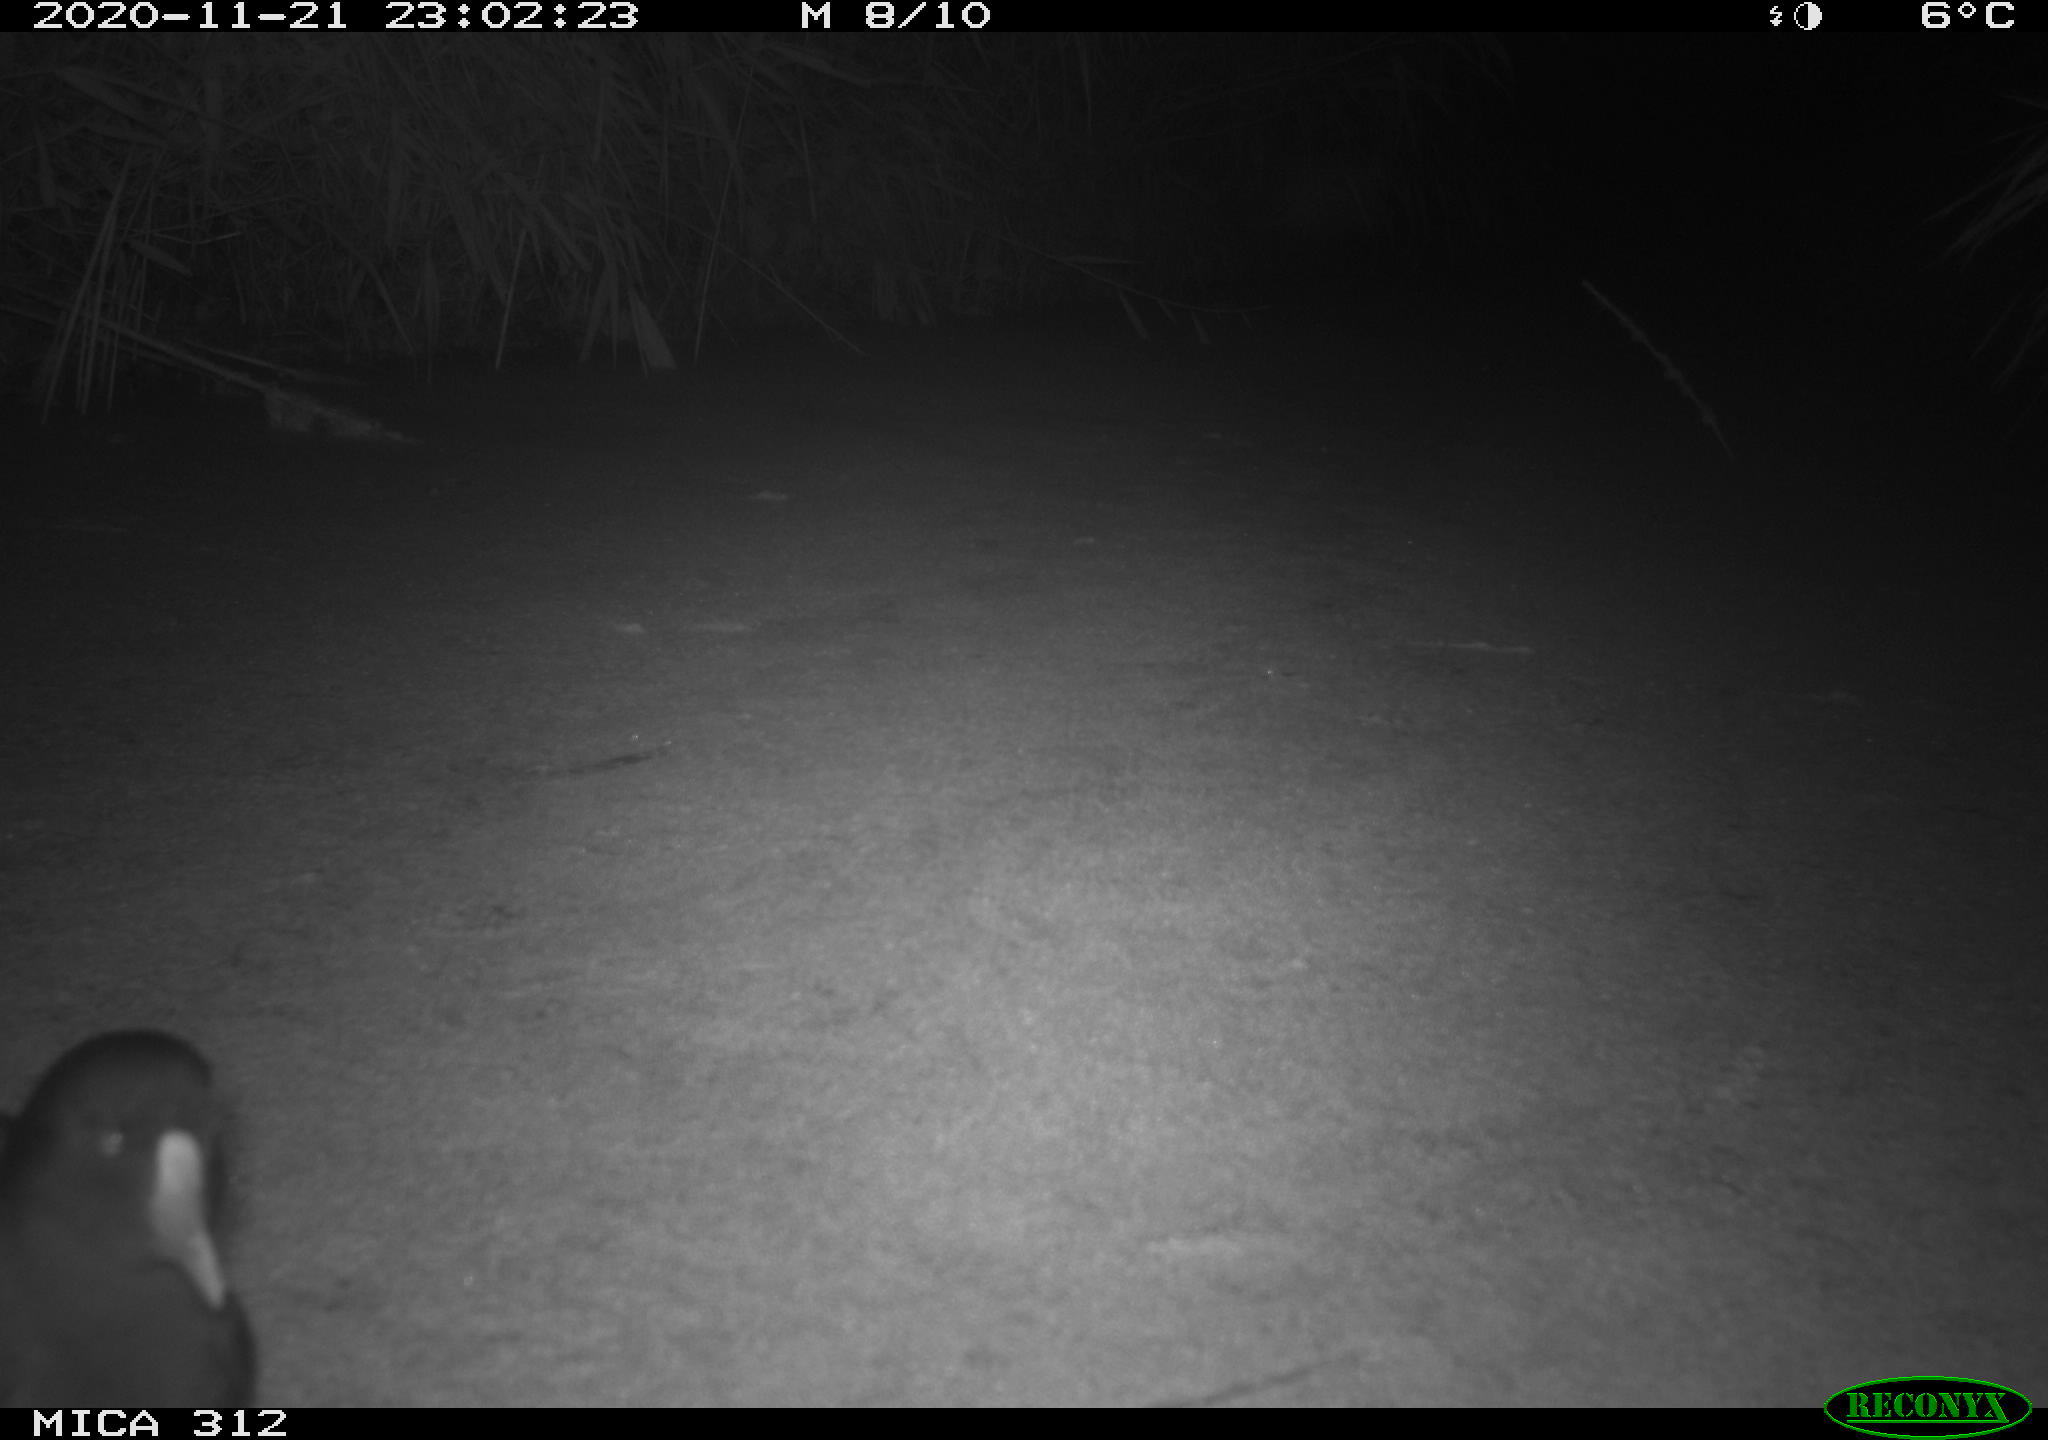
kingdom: Animalia
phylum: Chordata
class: Aves
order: Gruiformes
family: Rallidae
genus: Gallinula
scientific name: Gallinula chloropus
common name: Common moorhen
